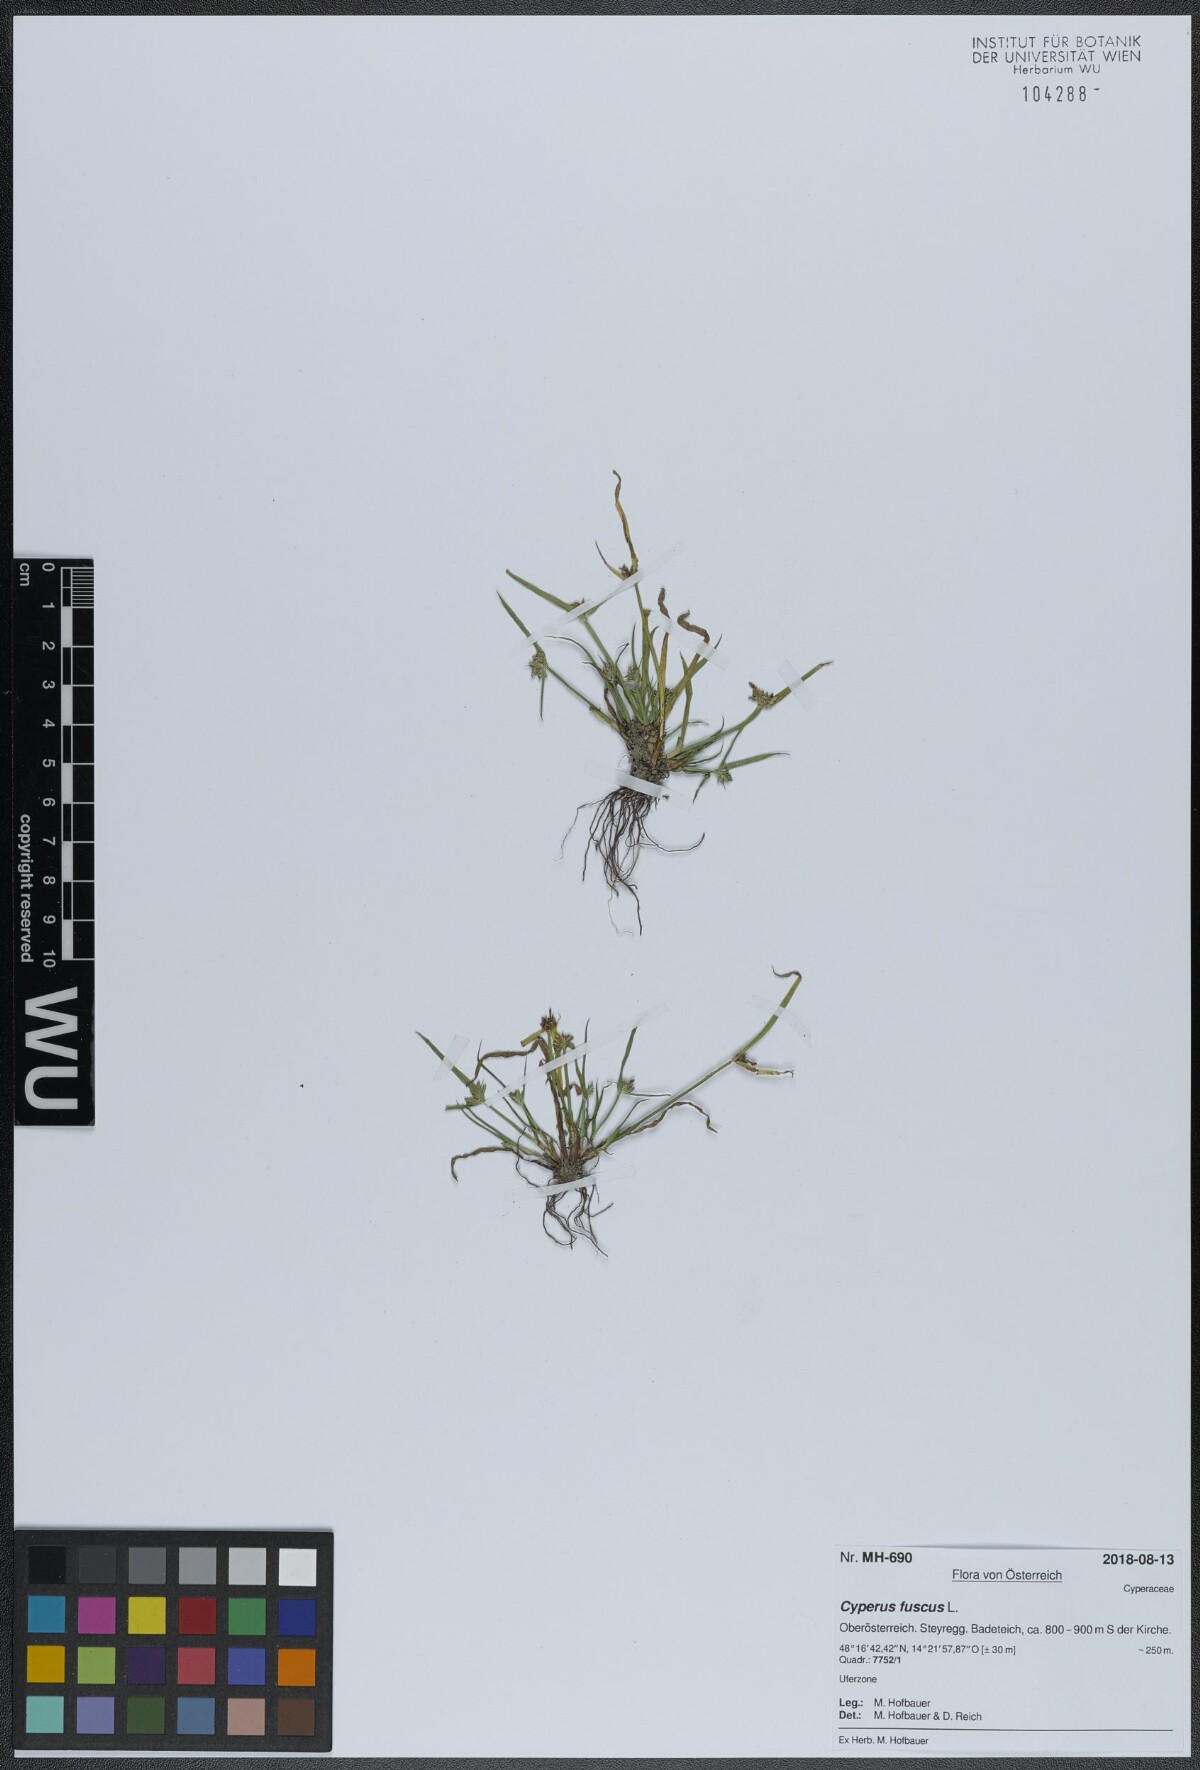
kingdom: Plantae
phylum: Tracheophyta
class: Liliopsida
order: Poales
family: Cyperaceae
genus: Cyperus
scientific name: Cyperus fuscus
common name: Brown galingale
